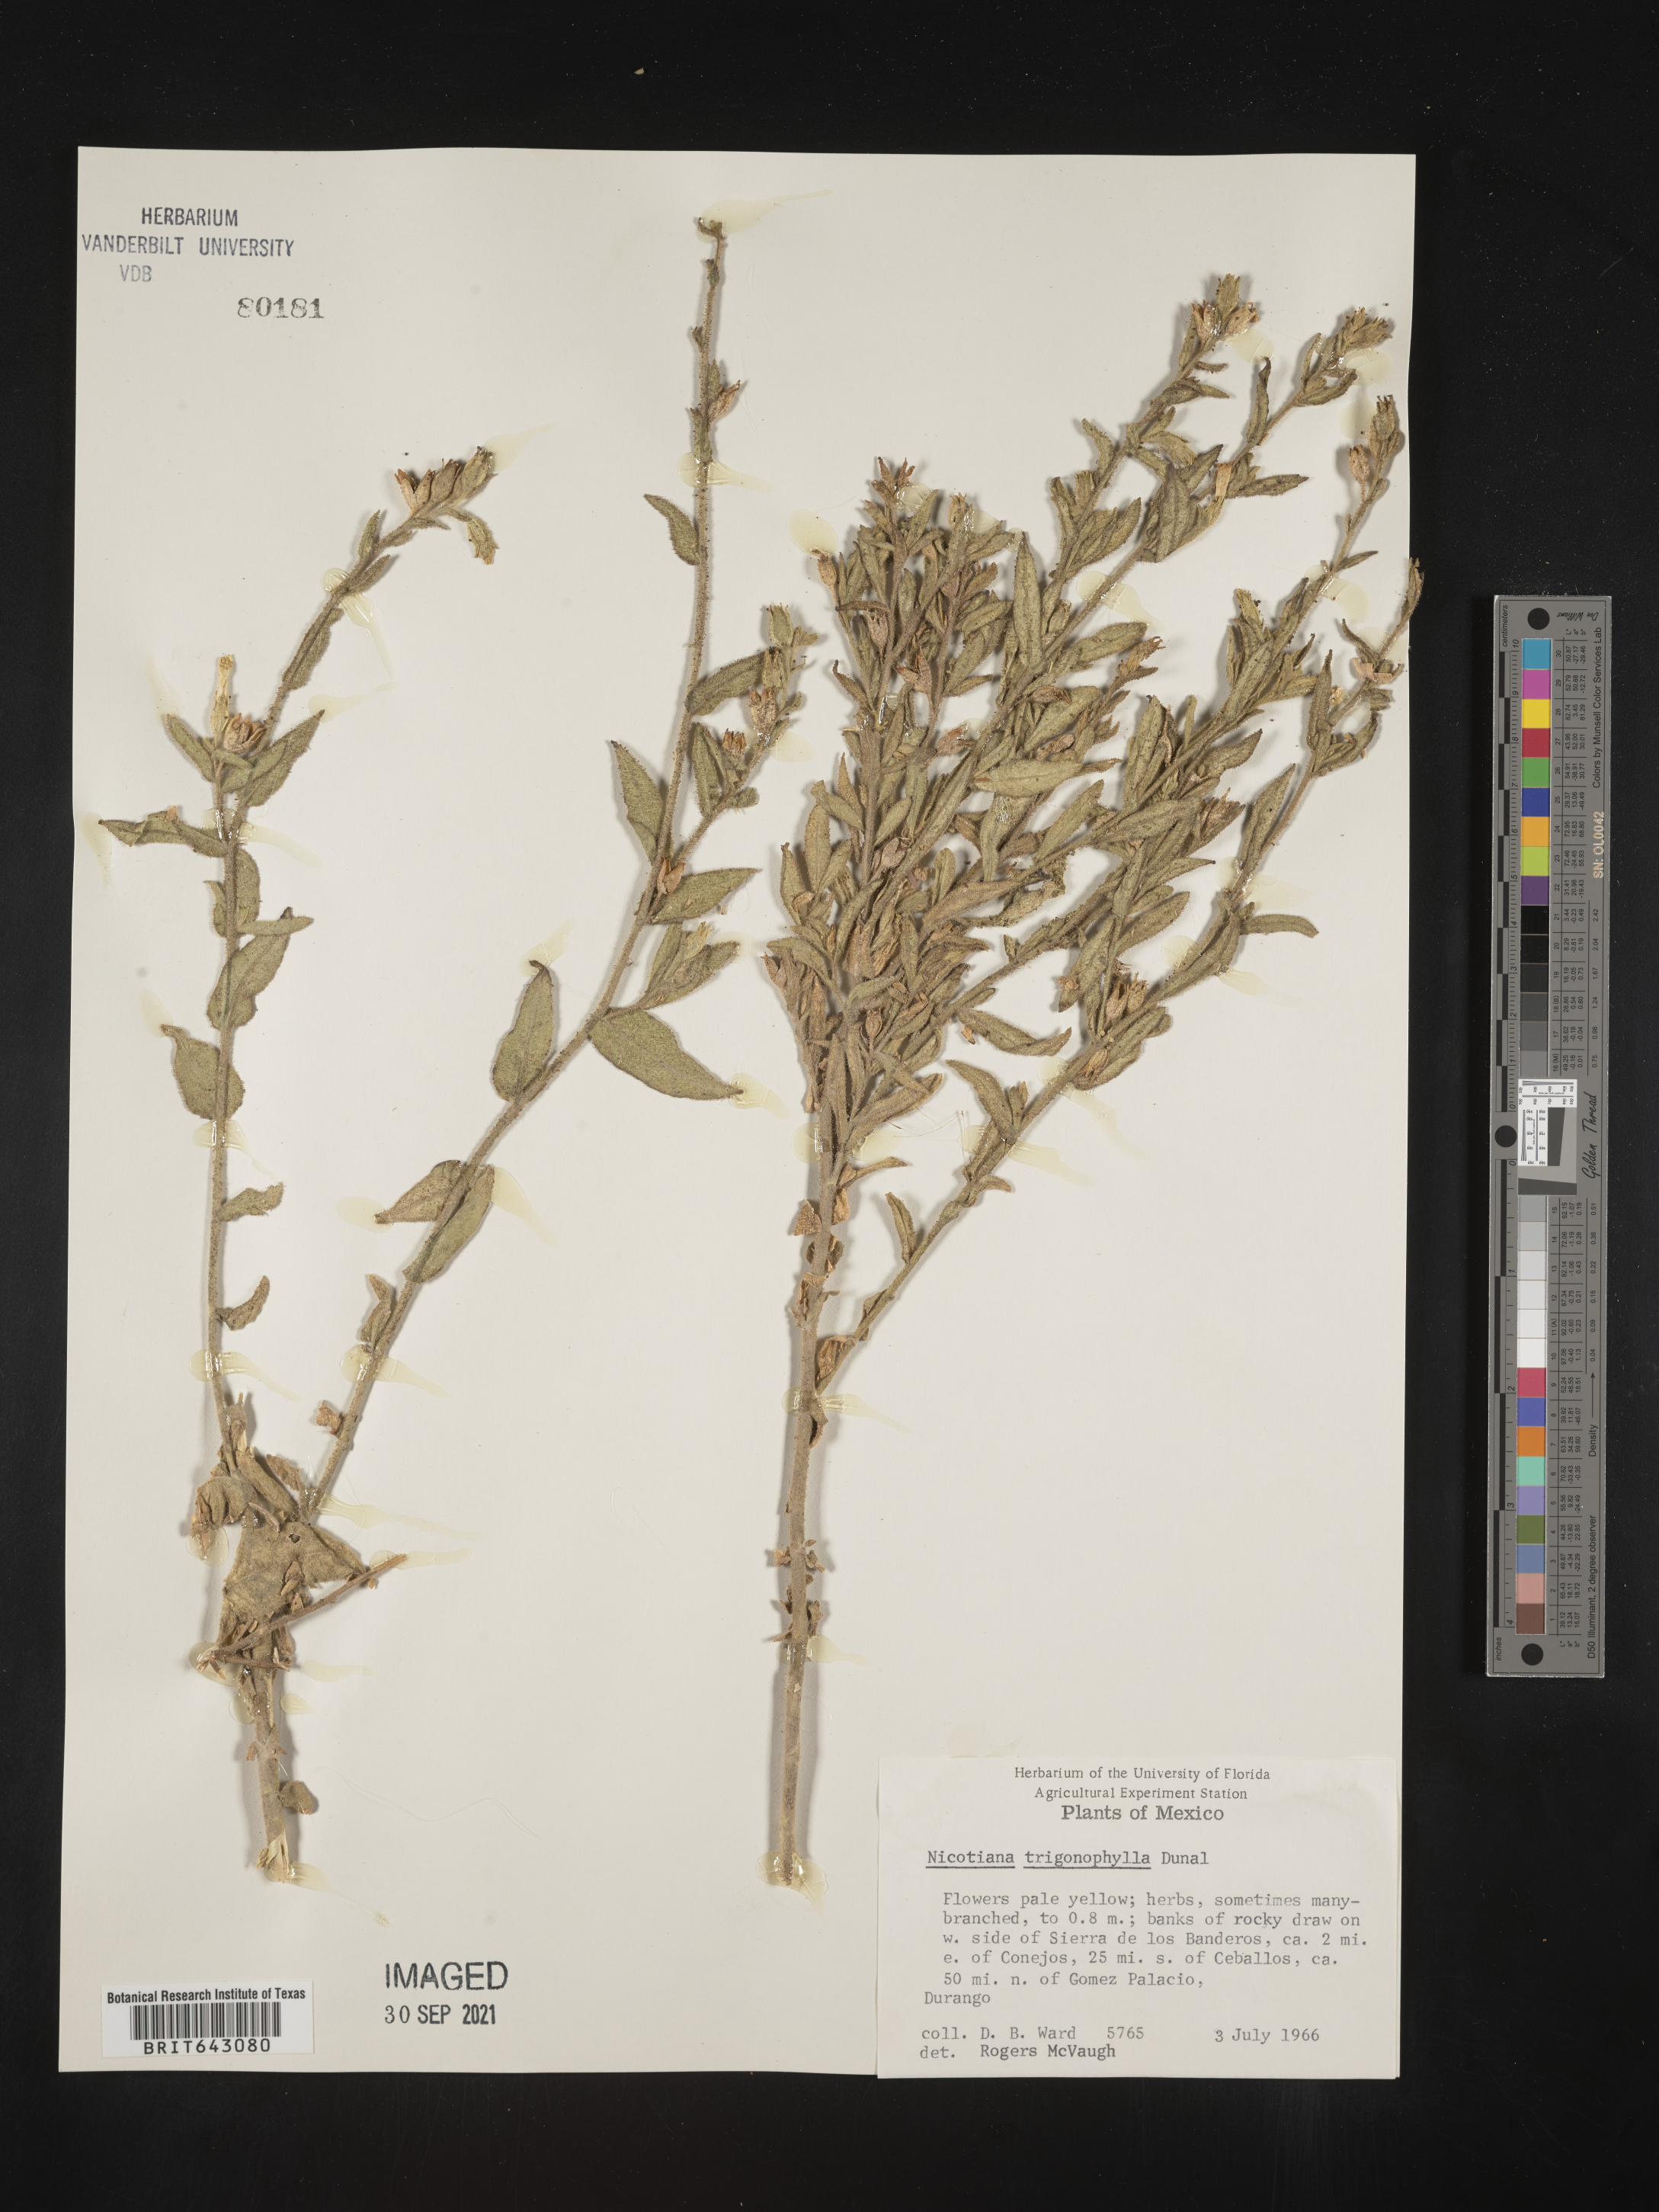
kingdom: Plantae
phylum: Tracheophyta
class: Magnoliopsida
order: Solanales
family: Solanaceae
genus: Nicotiana
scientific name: Nicotiana
